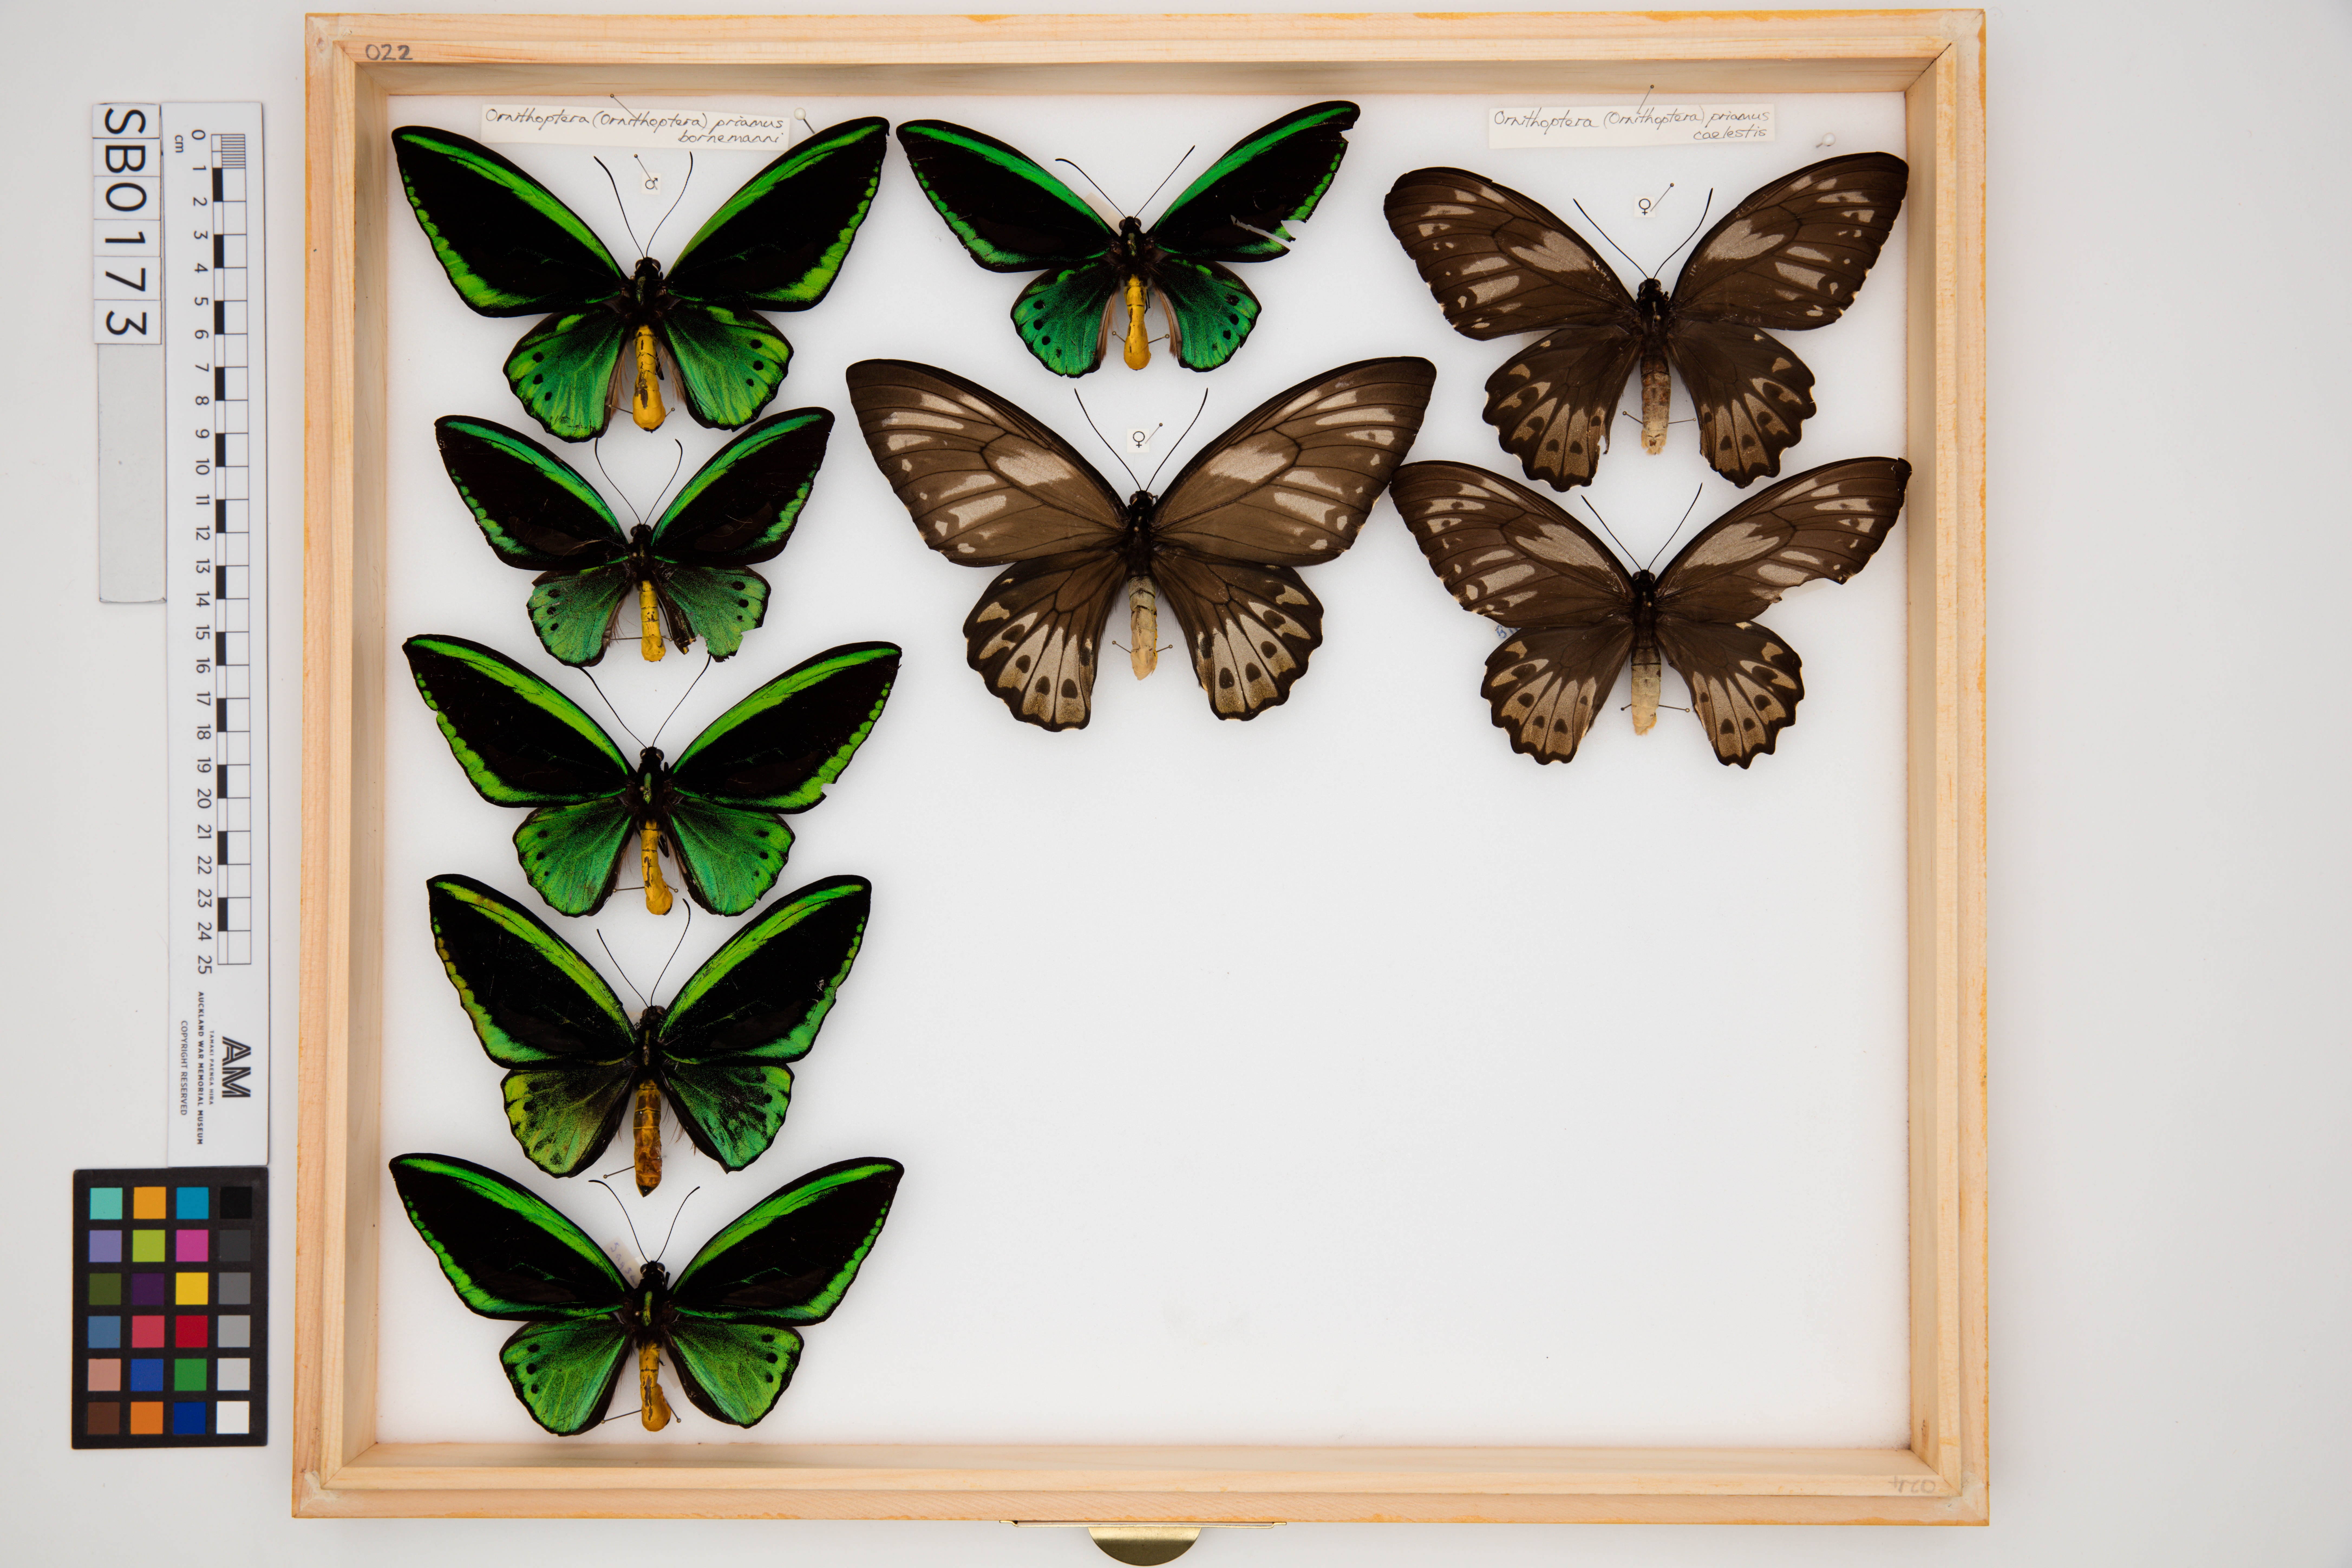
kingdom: Animalia
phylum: Arthropoda
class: Insecta
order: Lepidoptera
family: Papilionidae
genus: Ornithoptera
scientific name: Ornithoptera priamus
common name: Cape york birdwing
